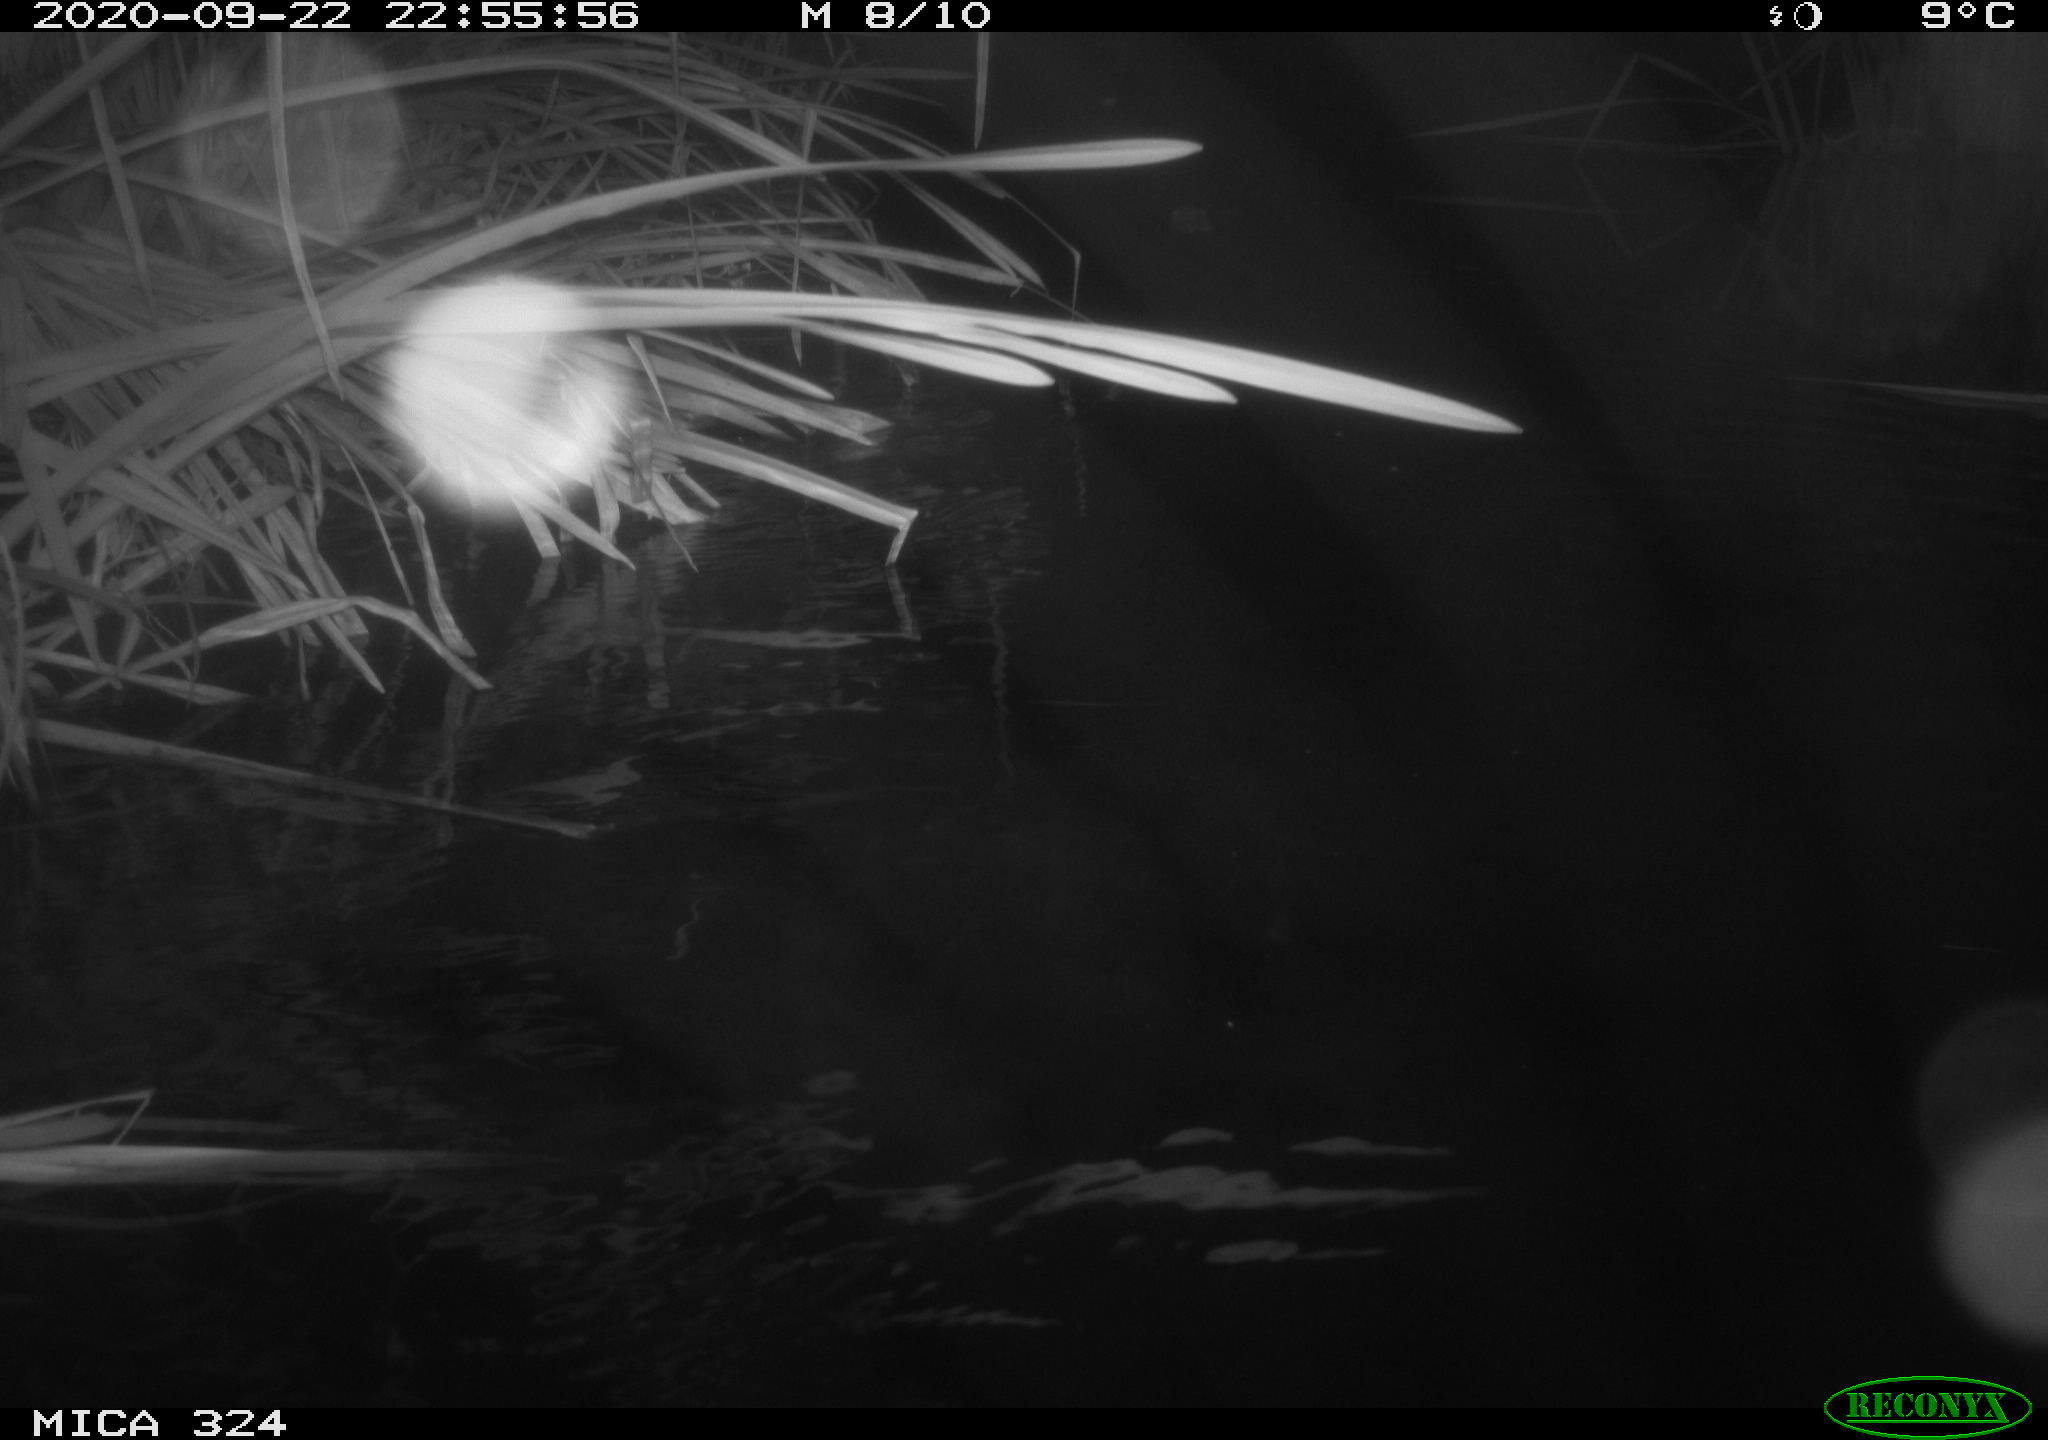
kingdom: Animalia
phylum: Chordata
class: Mammalia
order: Rodentia
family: Cricetidae
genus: Ondatra
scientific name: Ondatra zibethicus
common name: Muskrat
